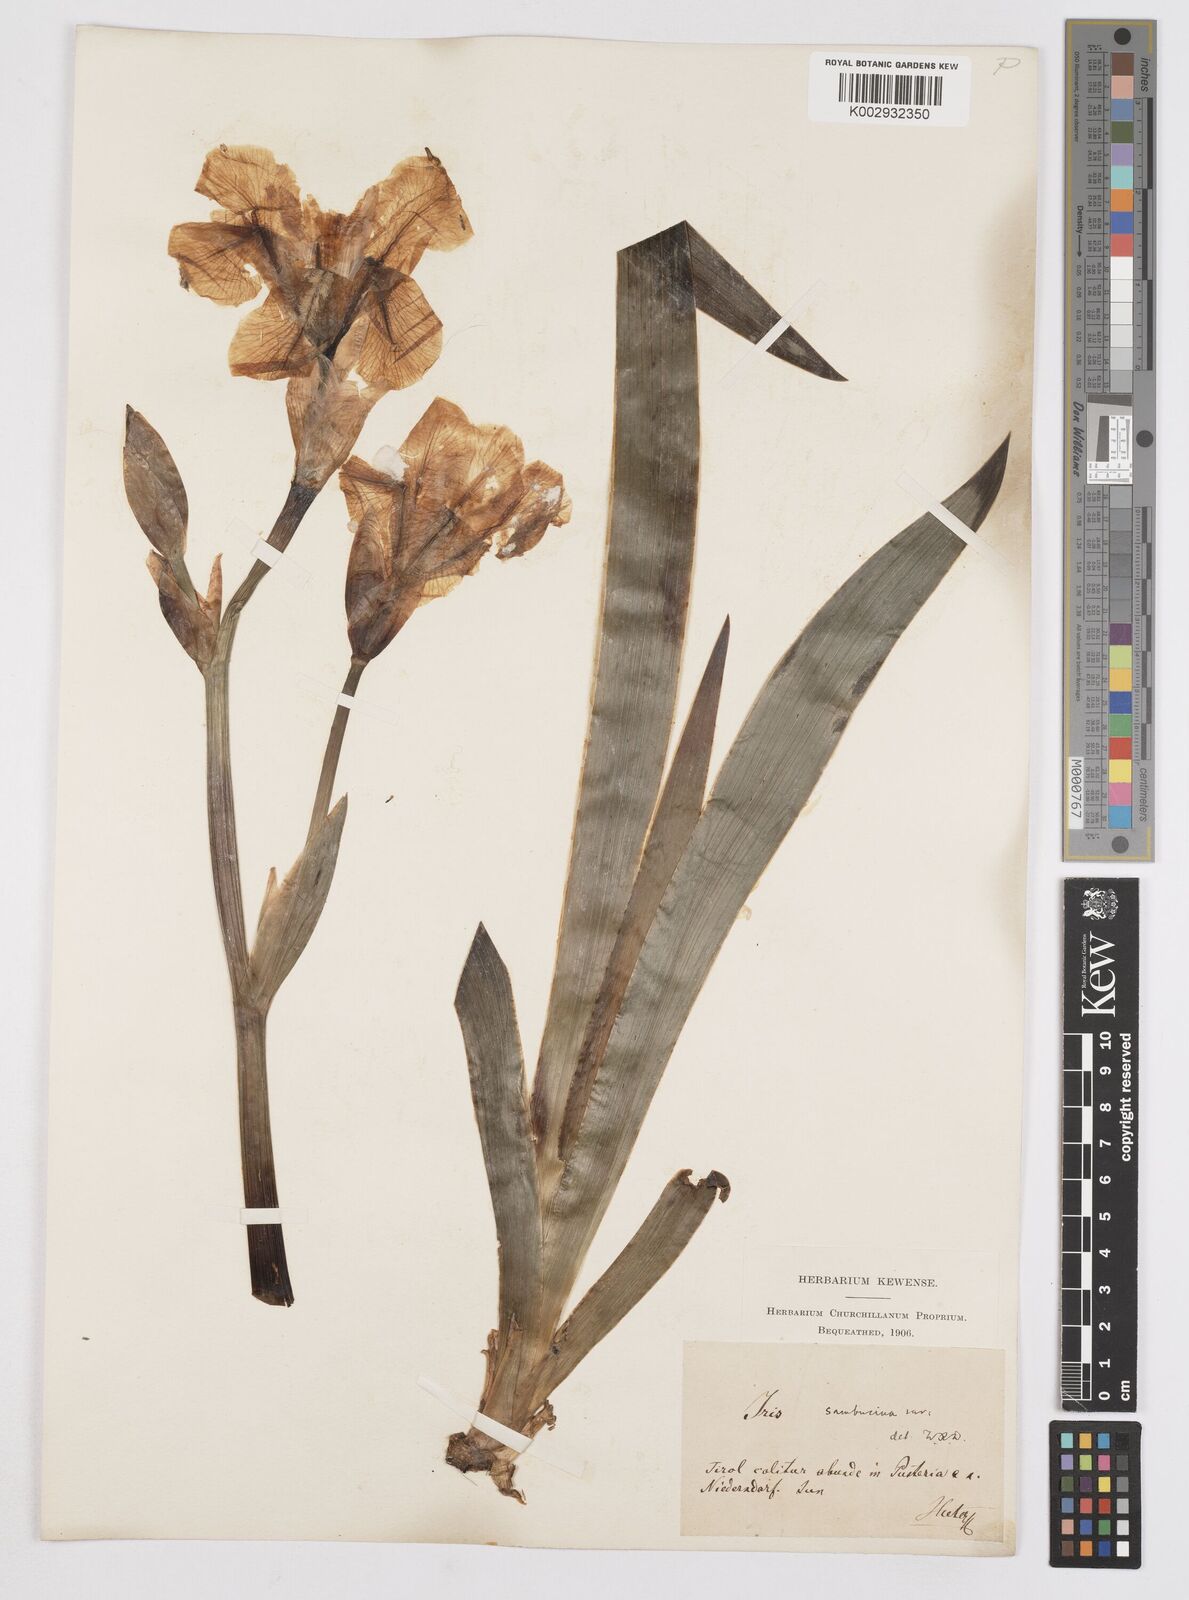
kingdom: Plantae
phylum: Tracheophyta
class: Liliopsida
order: Asparagales
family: Iridaceae
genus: Iris
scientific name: Iris germanica
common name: German iris
